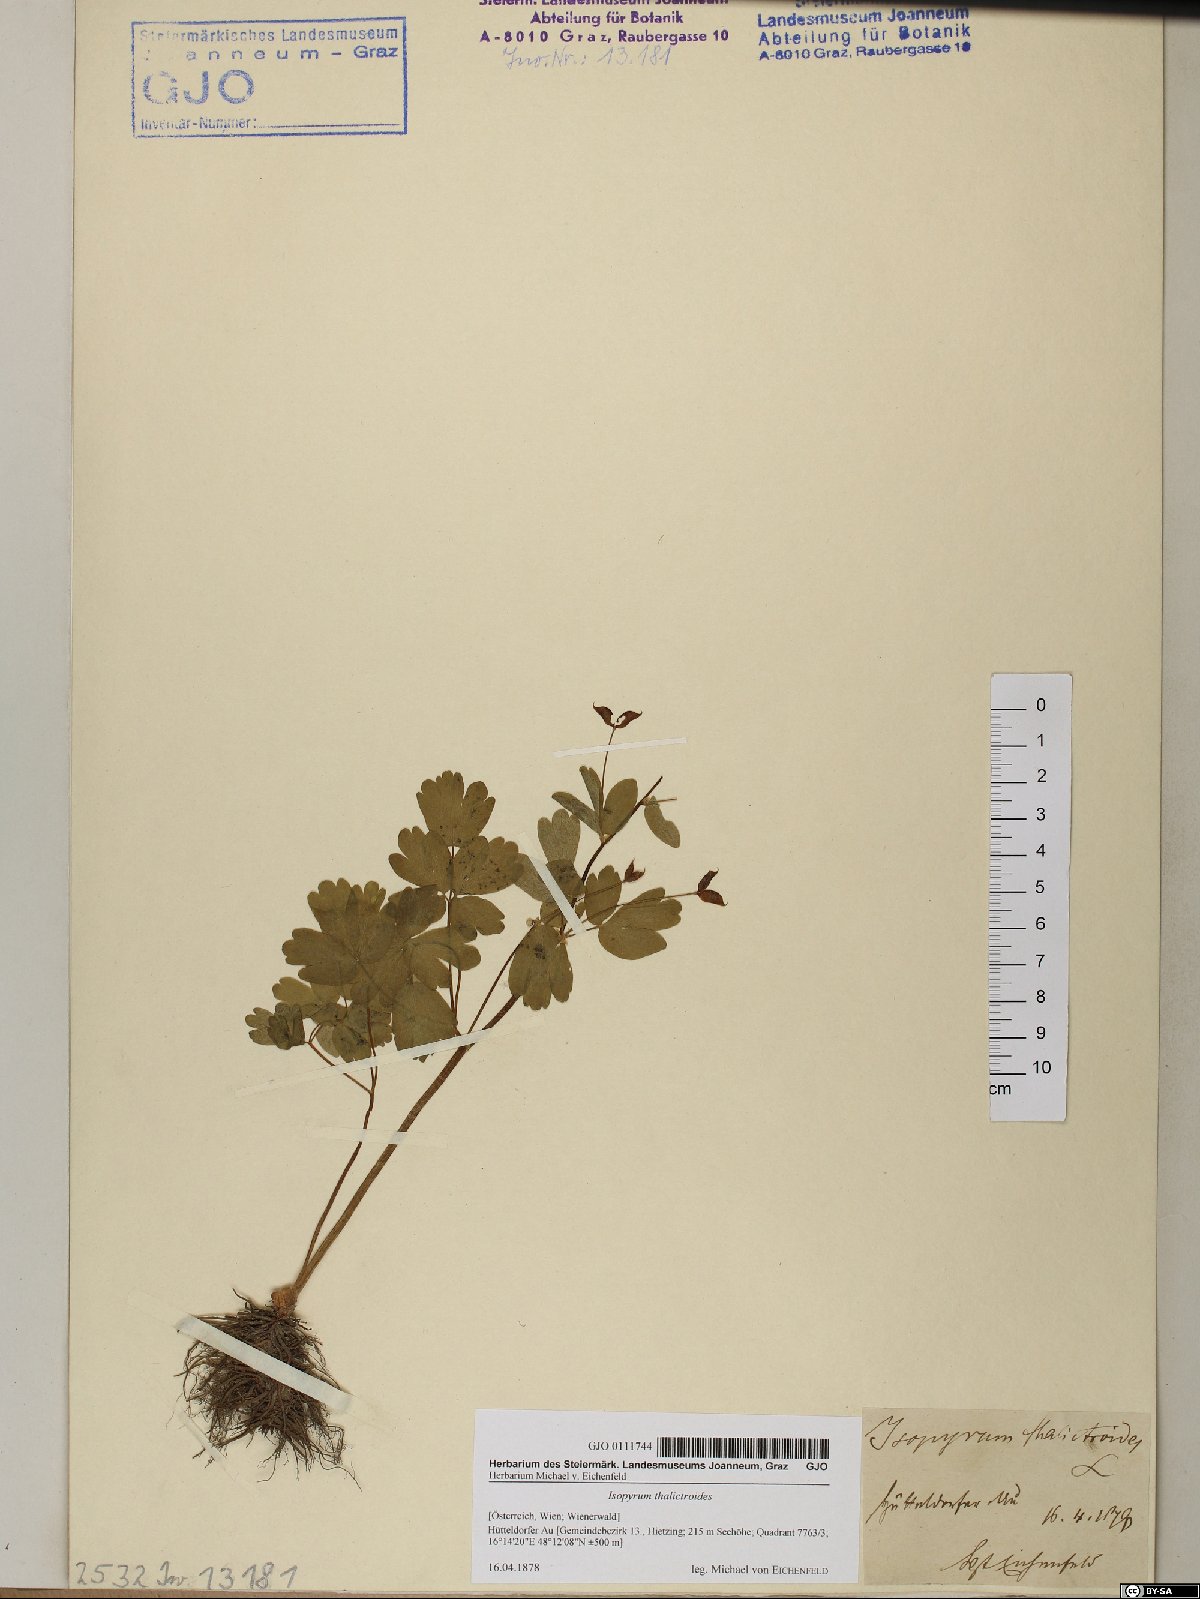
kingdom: Plantae
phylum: Tracheophyta
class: Magnoliopsida
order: Ranunculales
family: Ranunculaceae
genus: Isopyrum
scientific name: Isopyrum thalictroides
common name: Isopyrum
